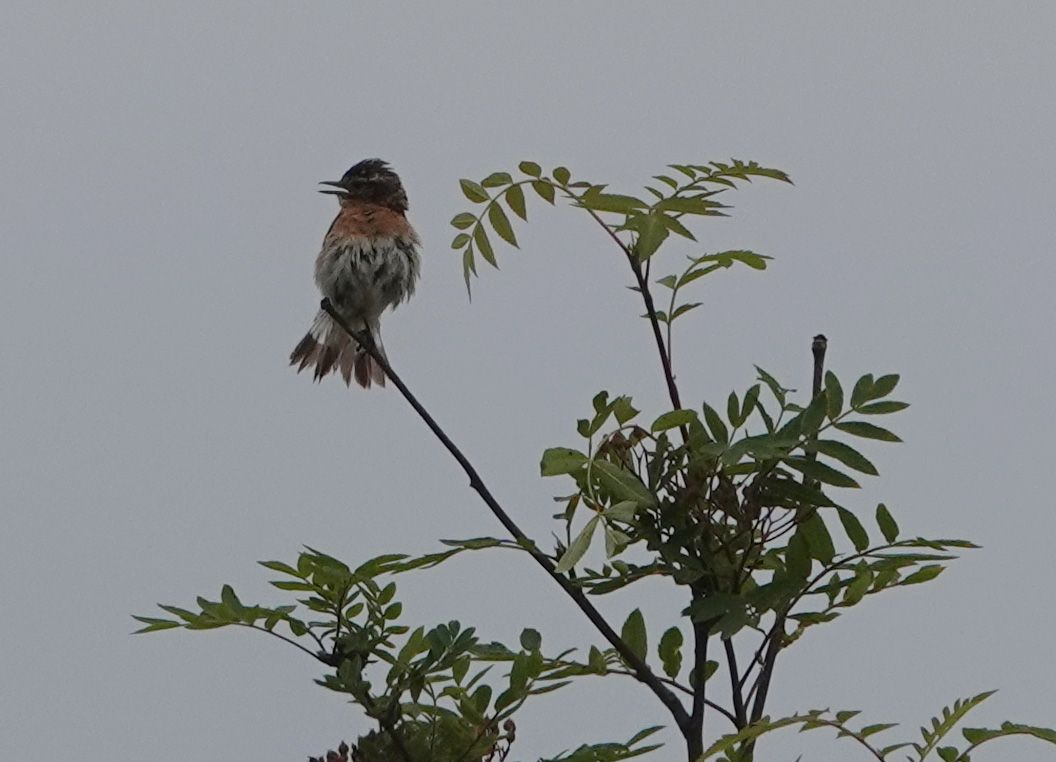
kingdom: Animalia
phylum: Chordata
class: Aves
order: Passeriformes
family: Muscicapidae
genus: Saxicola
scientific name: Saxicola rubetra
